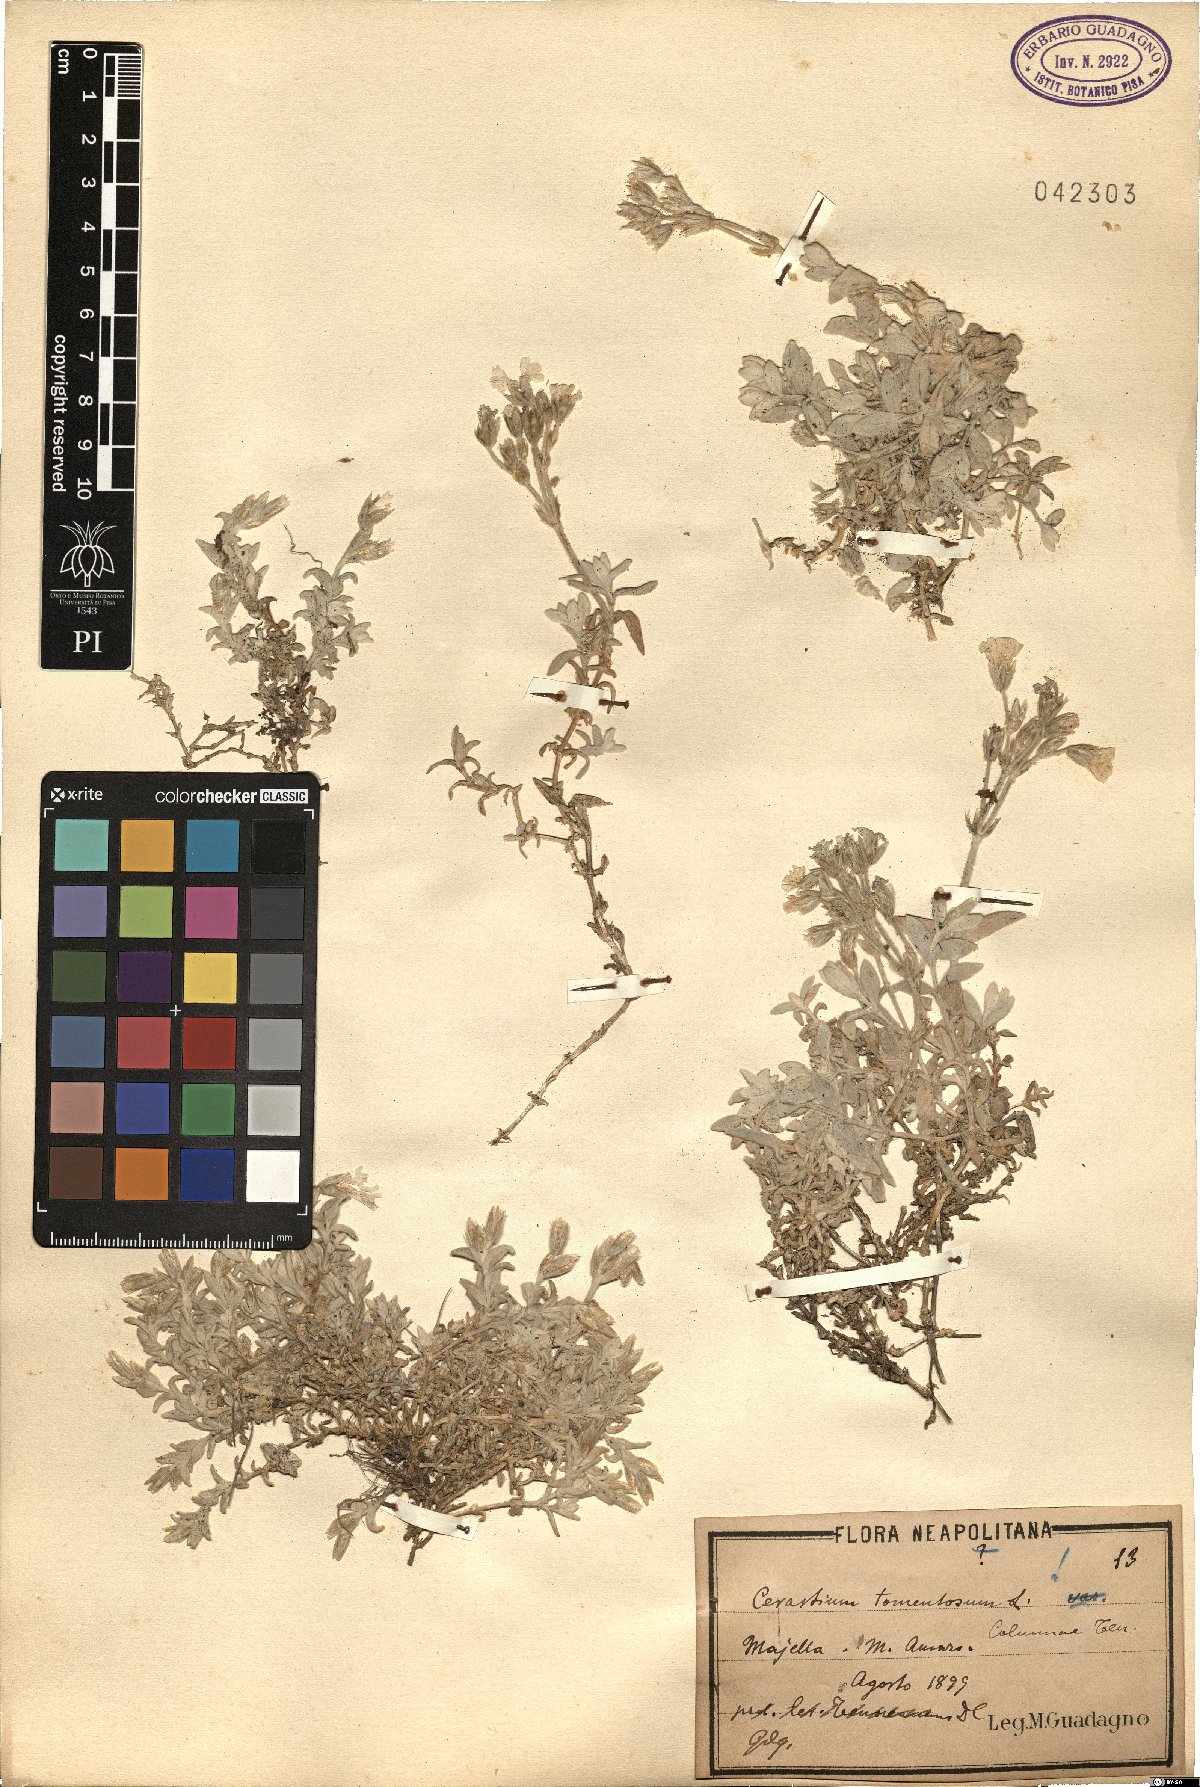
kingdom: Plantae
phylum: Tracheophyta
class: Magnoliopsida
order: Caryophyllales
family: Caryophyllaceae
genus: Cerastium
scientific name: Cerastium tomentosum
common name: Snow-in-summer
